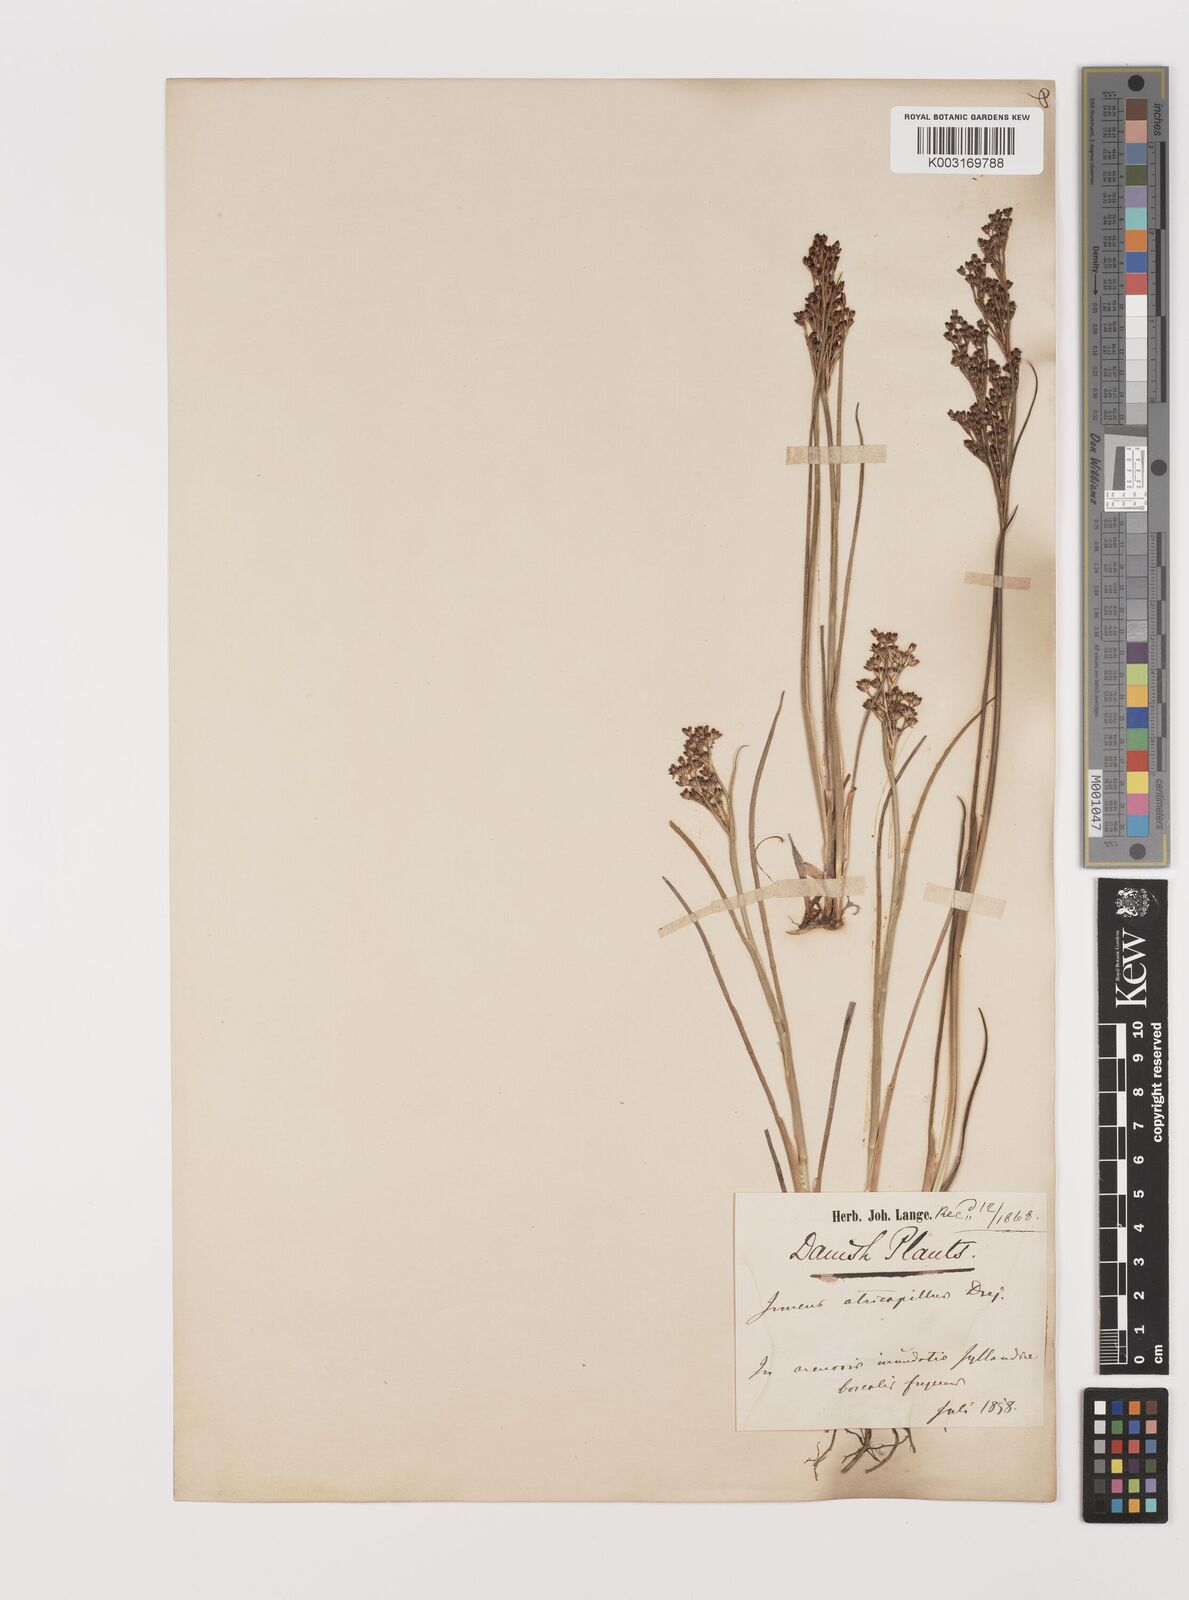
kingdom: Plantae
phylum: Tracheophyta
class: Liliopsida
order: Poales
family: Juncaceae
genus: Juncus
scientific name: Juncus anceps
